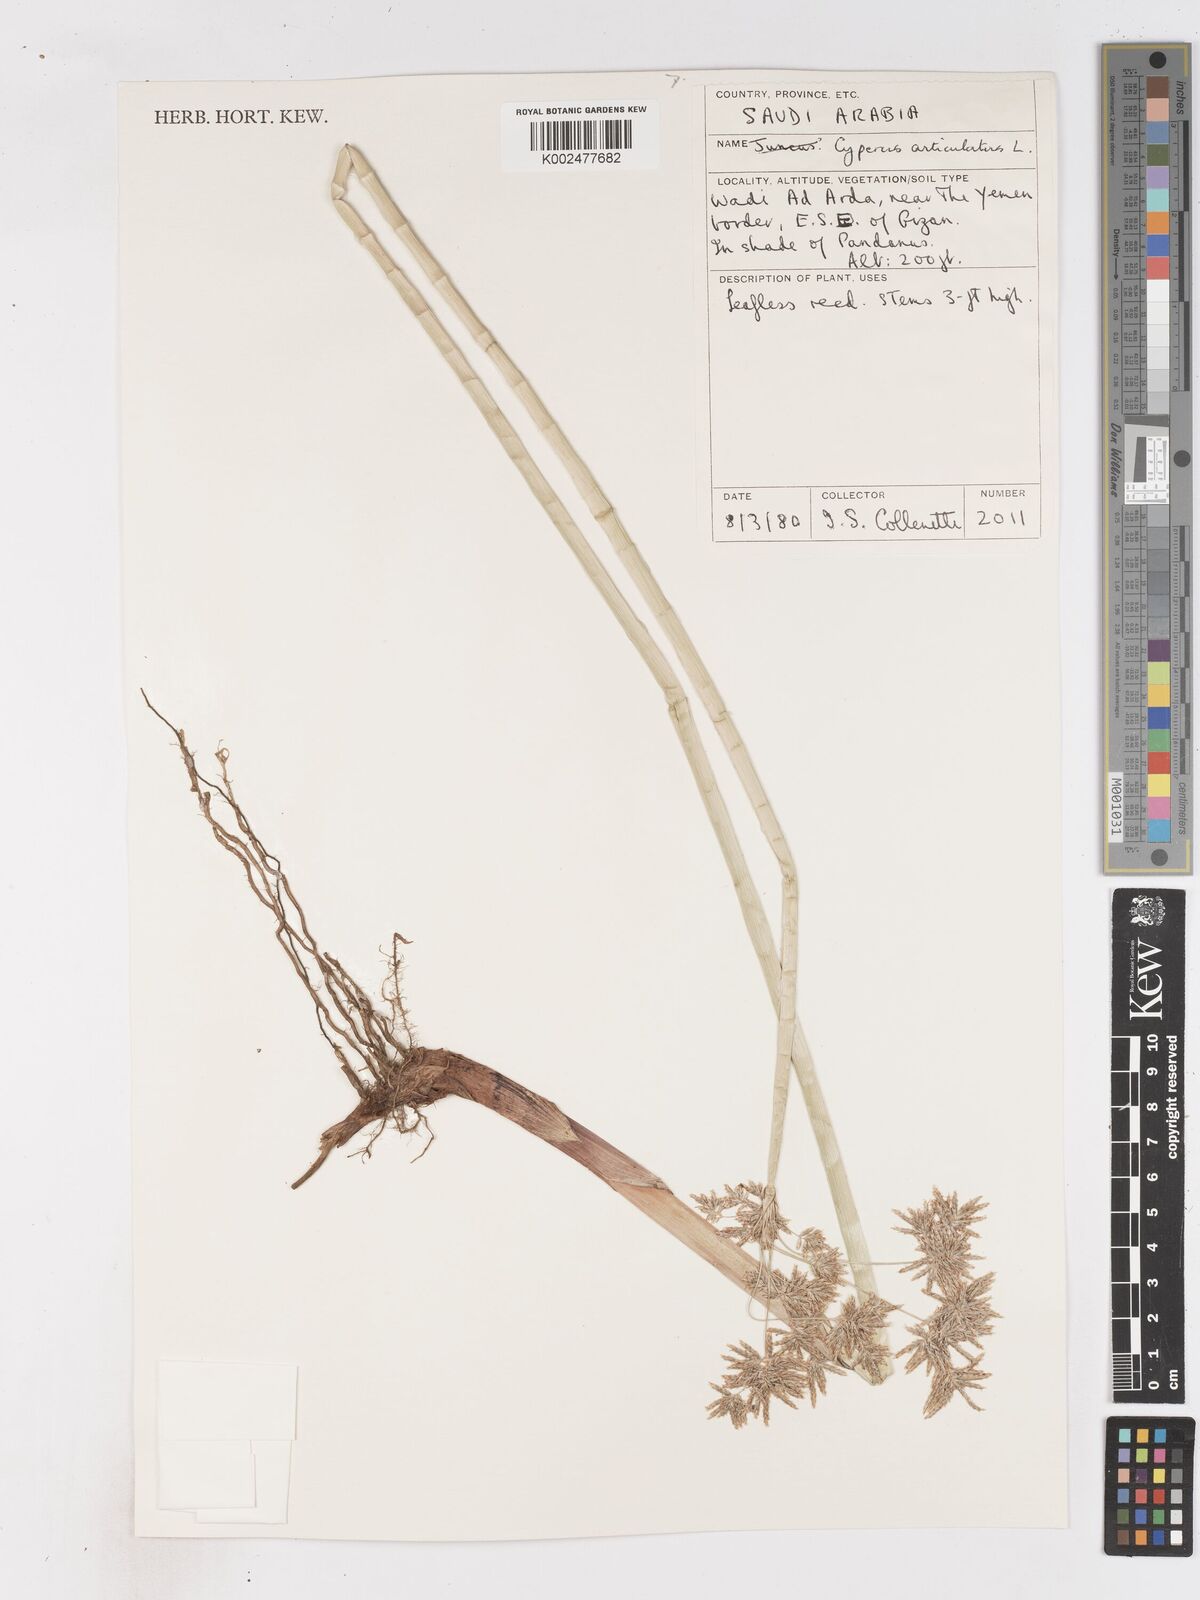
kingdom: Plantae
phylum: Tracheophyta
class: Liliopsida
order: Poales
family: Cyperaceae
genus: Cyperus
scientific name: Cyperus articulatus
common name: Jointed flatsedge
